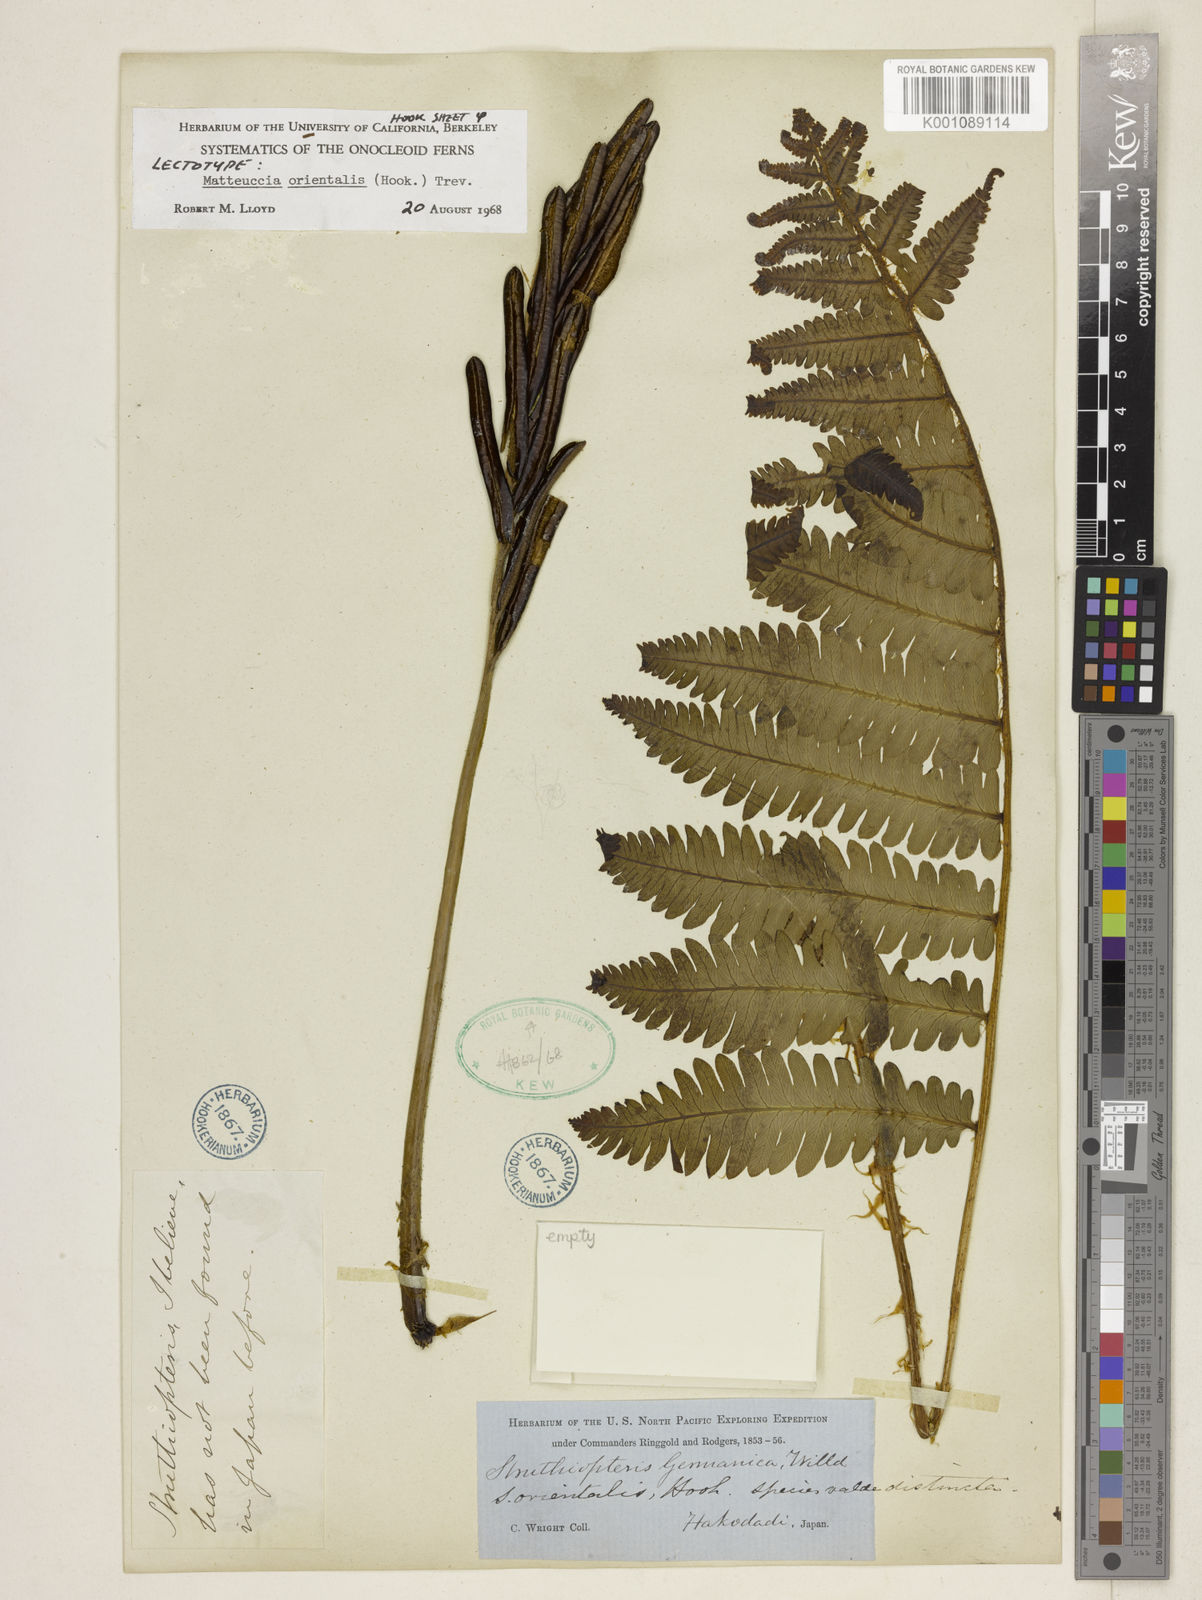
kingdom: Plantae
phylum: Tracheophyta
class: Polypodiopsida
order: Polypodiales
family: Onocleaceae
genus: Pentarhizidium
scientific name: Pentarhizidium orientale
